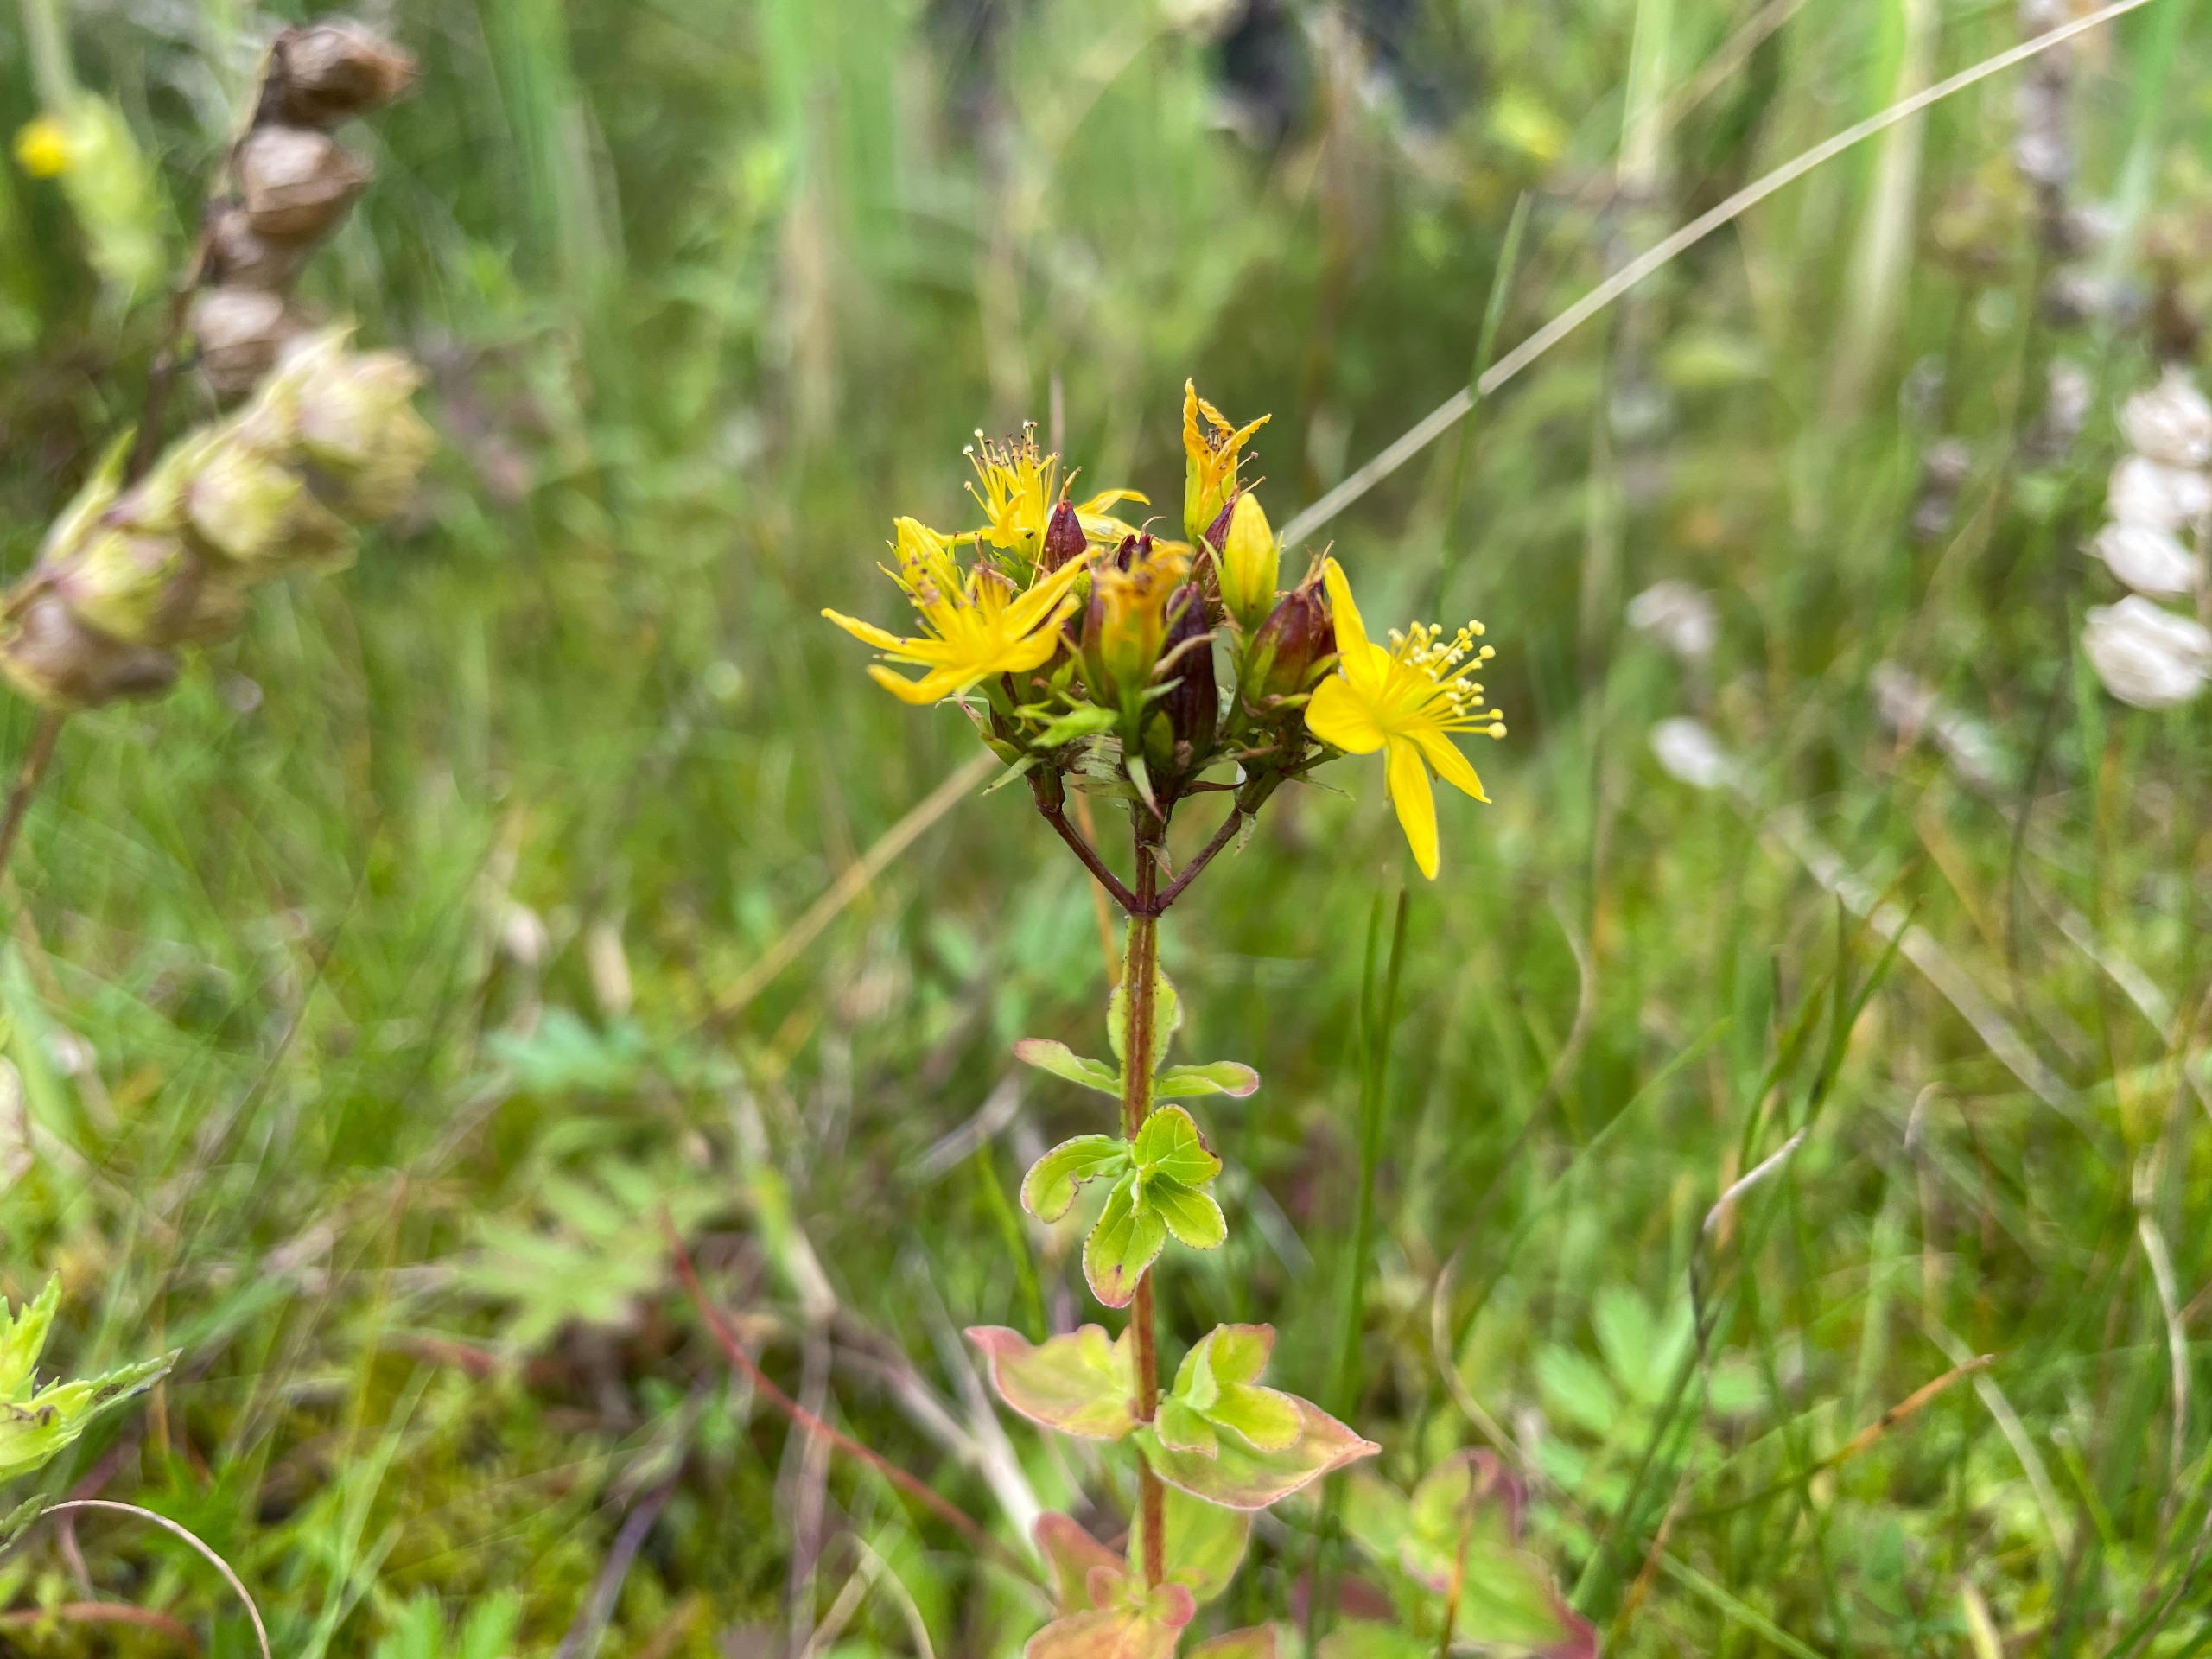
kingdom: Plantae
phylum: Tracheophyta
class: Magnoliopsida
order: Malpighiales
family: Hypericaceae
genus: Hypericum
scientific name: Hypericum tetrapterum
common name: Vinget perikon
